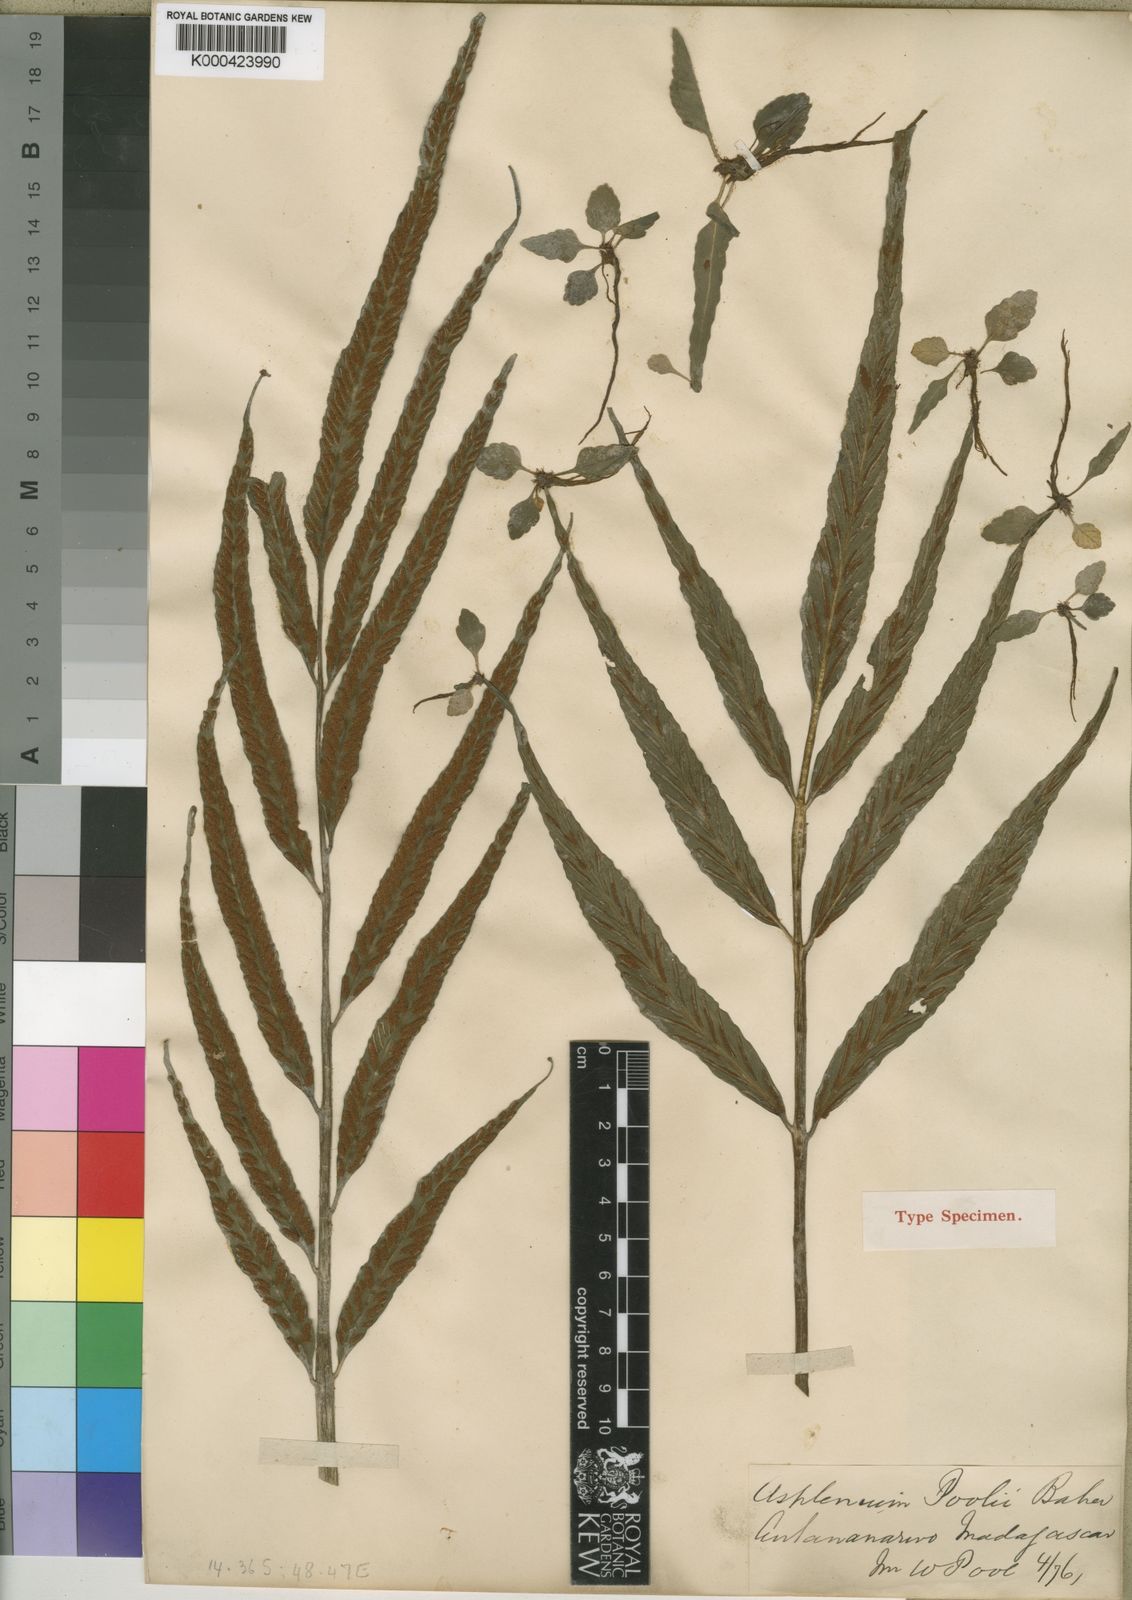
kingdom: Plantae
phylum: Tracheophyta
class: Polypodiopsida
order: Polypodiales
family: Aspleniaceae
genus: Asplenium
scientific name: Asplenium poolii
